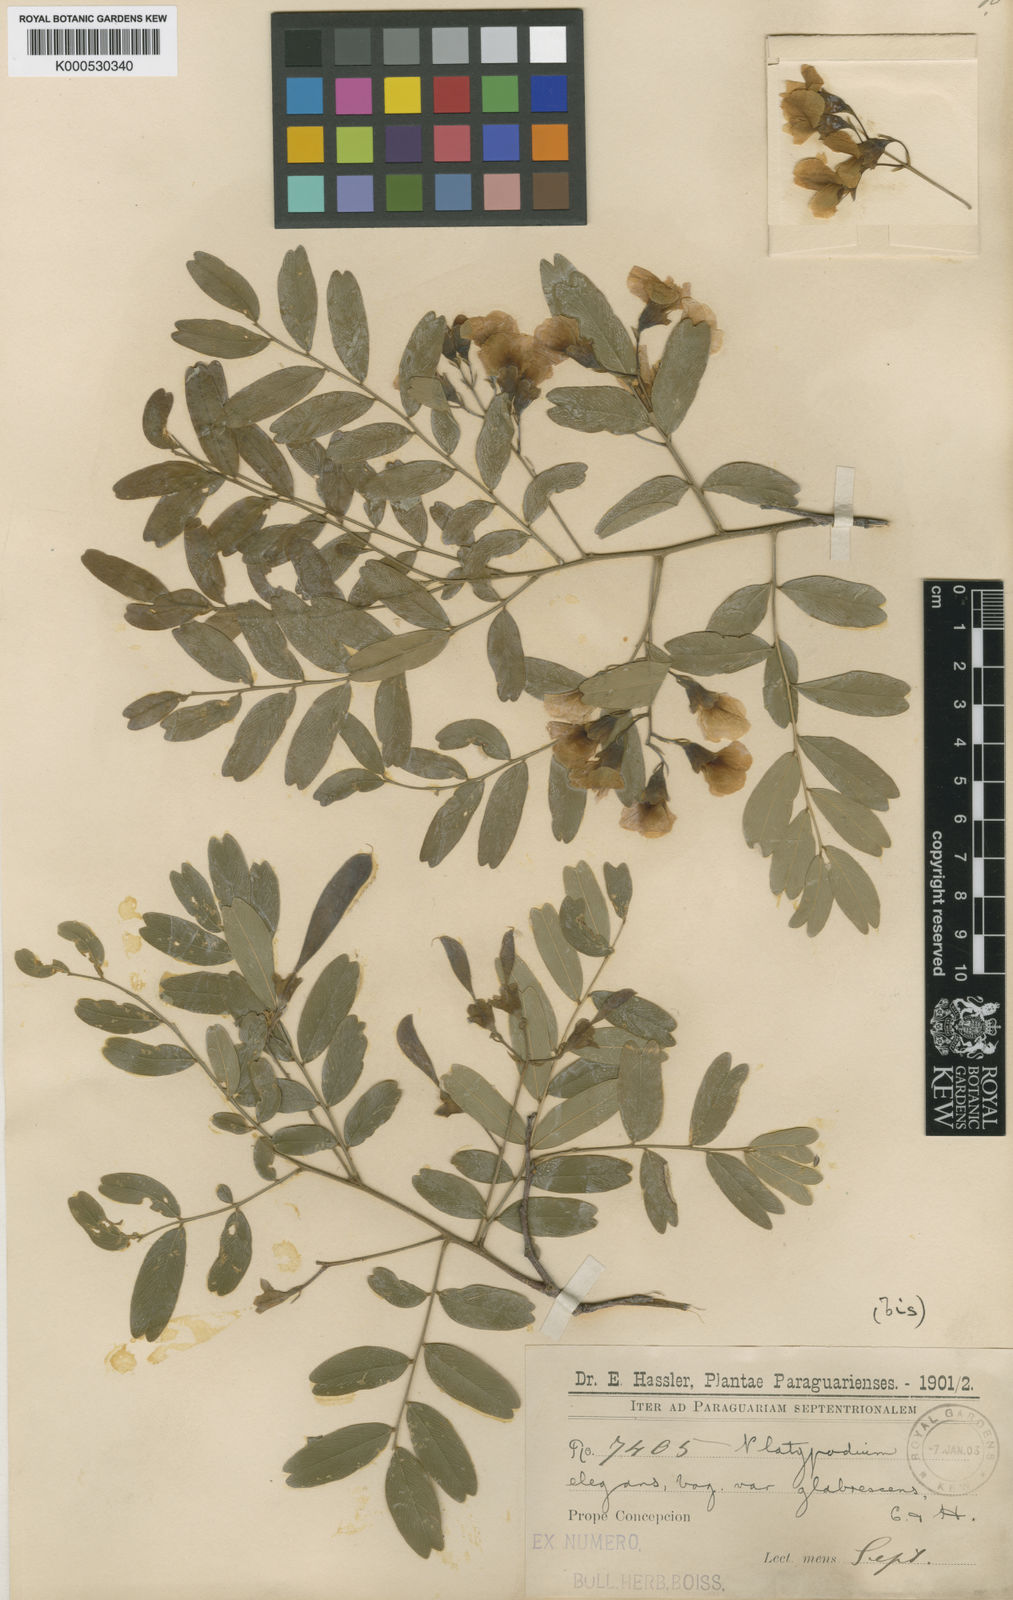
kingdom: Plantae
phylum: Tracheophyta
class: Magnoliopsida
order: Fabales
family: Fabaceae
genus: Platypodium
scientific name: Platypodium elegans
